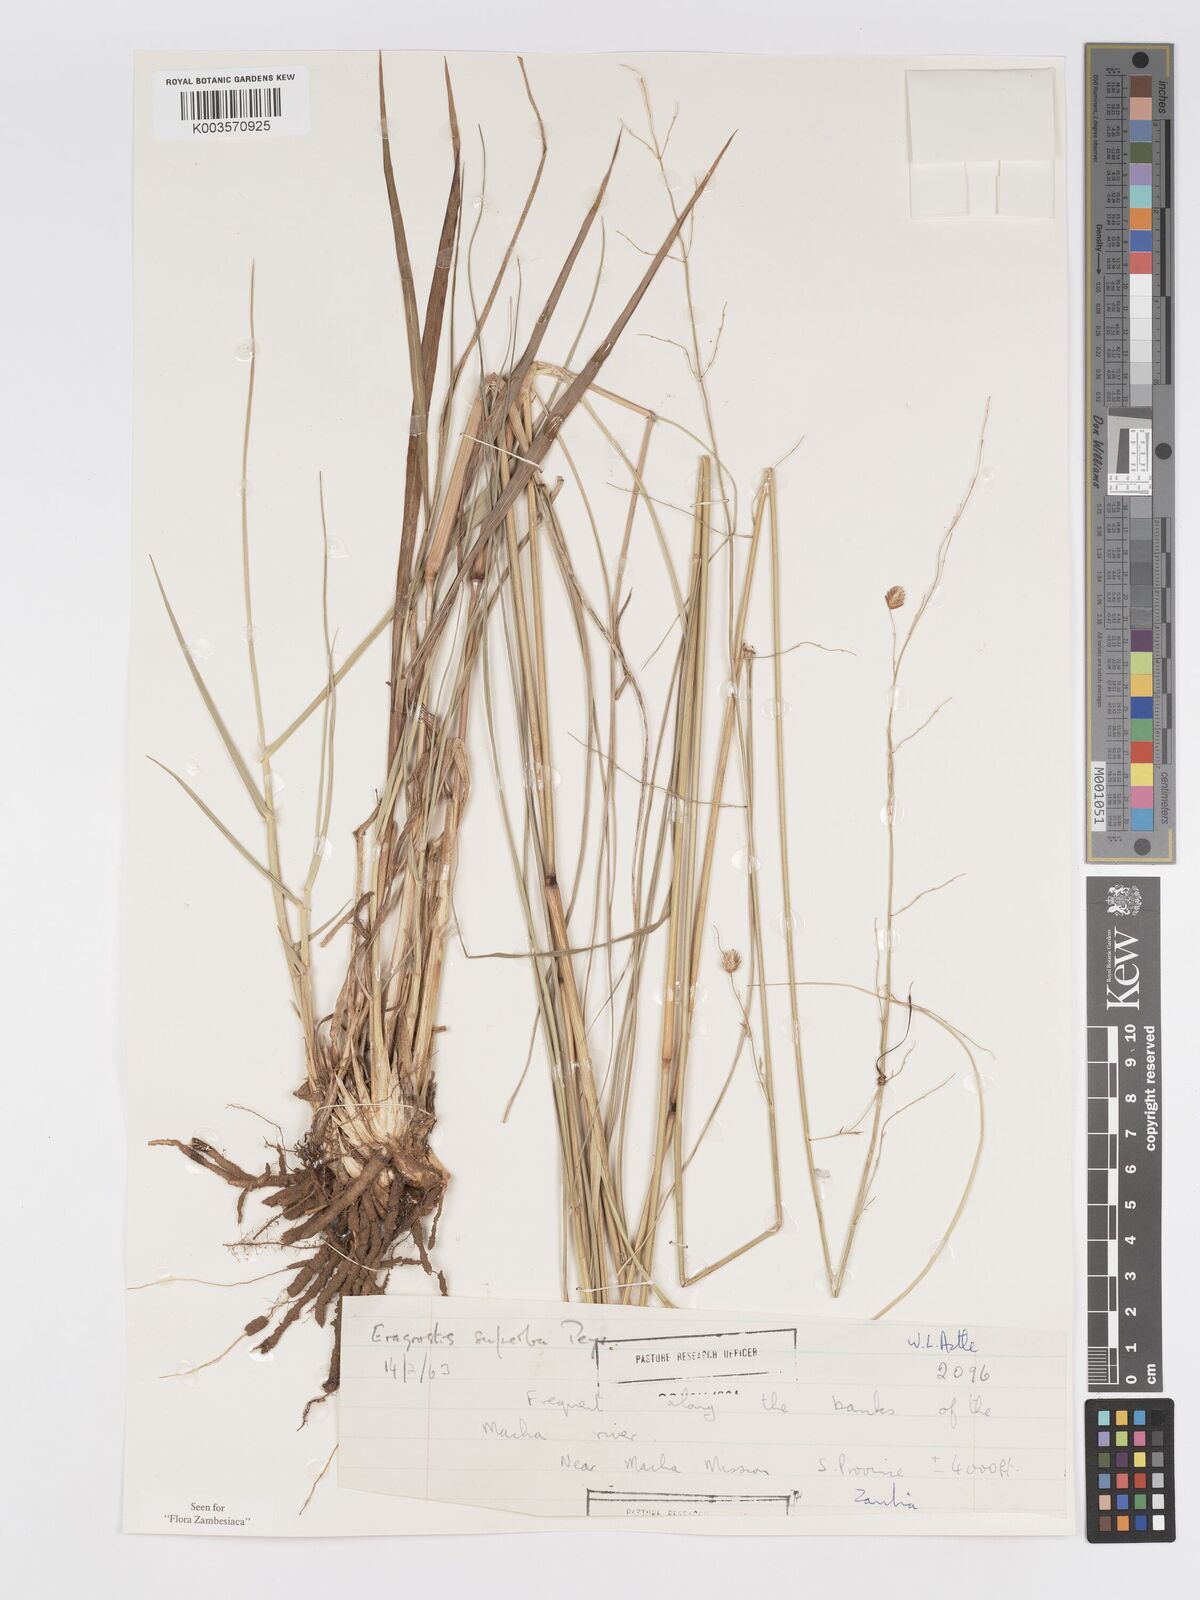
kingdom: Plantae
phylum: Tracheophyta
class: Liliopsida
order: Poales
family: Poaceae
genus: Eragrostis
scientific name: Eragrostis superba
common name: Wilman lovegrass
